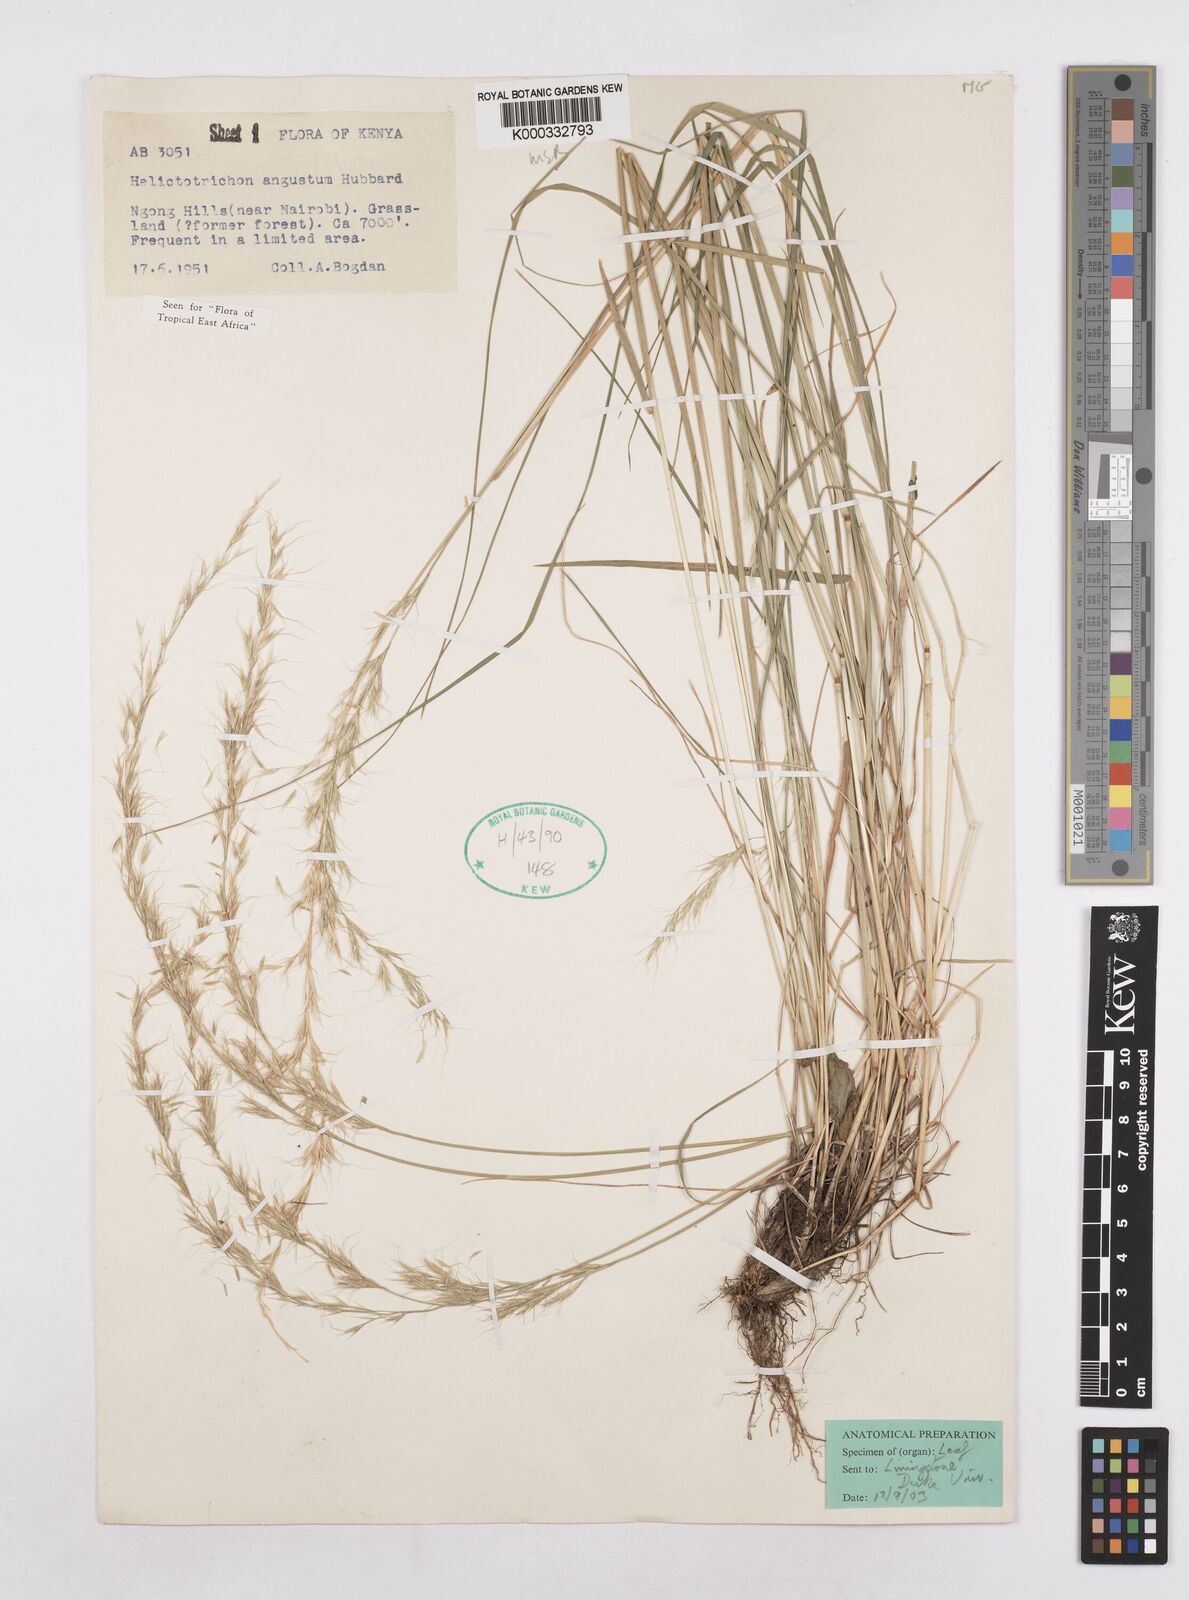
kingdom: Plantae
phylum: Tracheophyta
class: Liliopsida
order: Poales
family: Poaceae
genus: Trisetopsis
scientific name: Trisetopsis angusta
